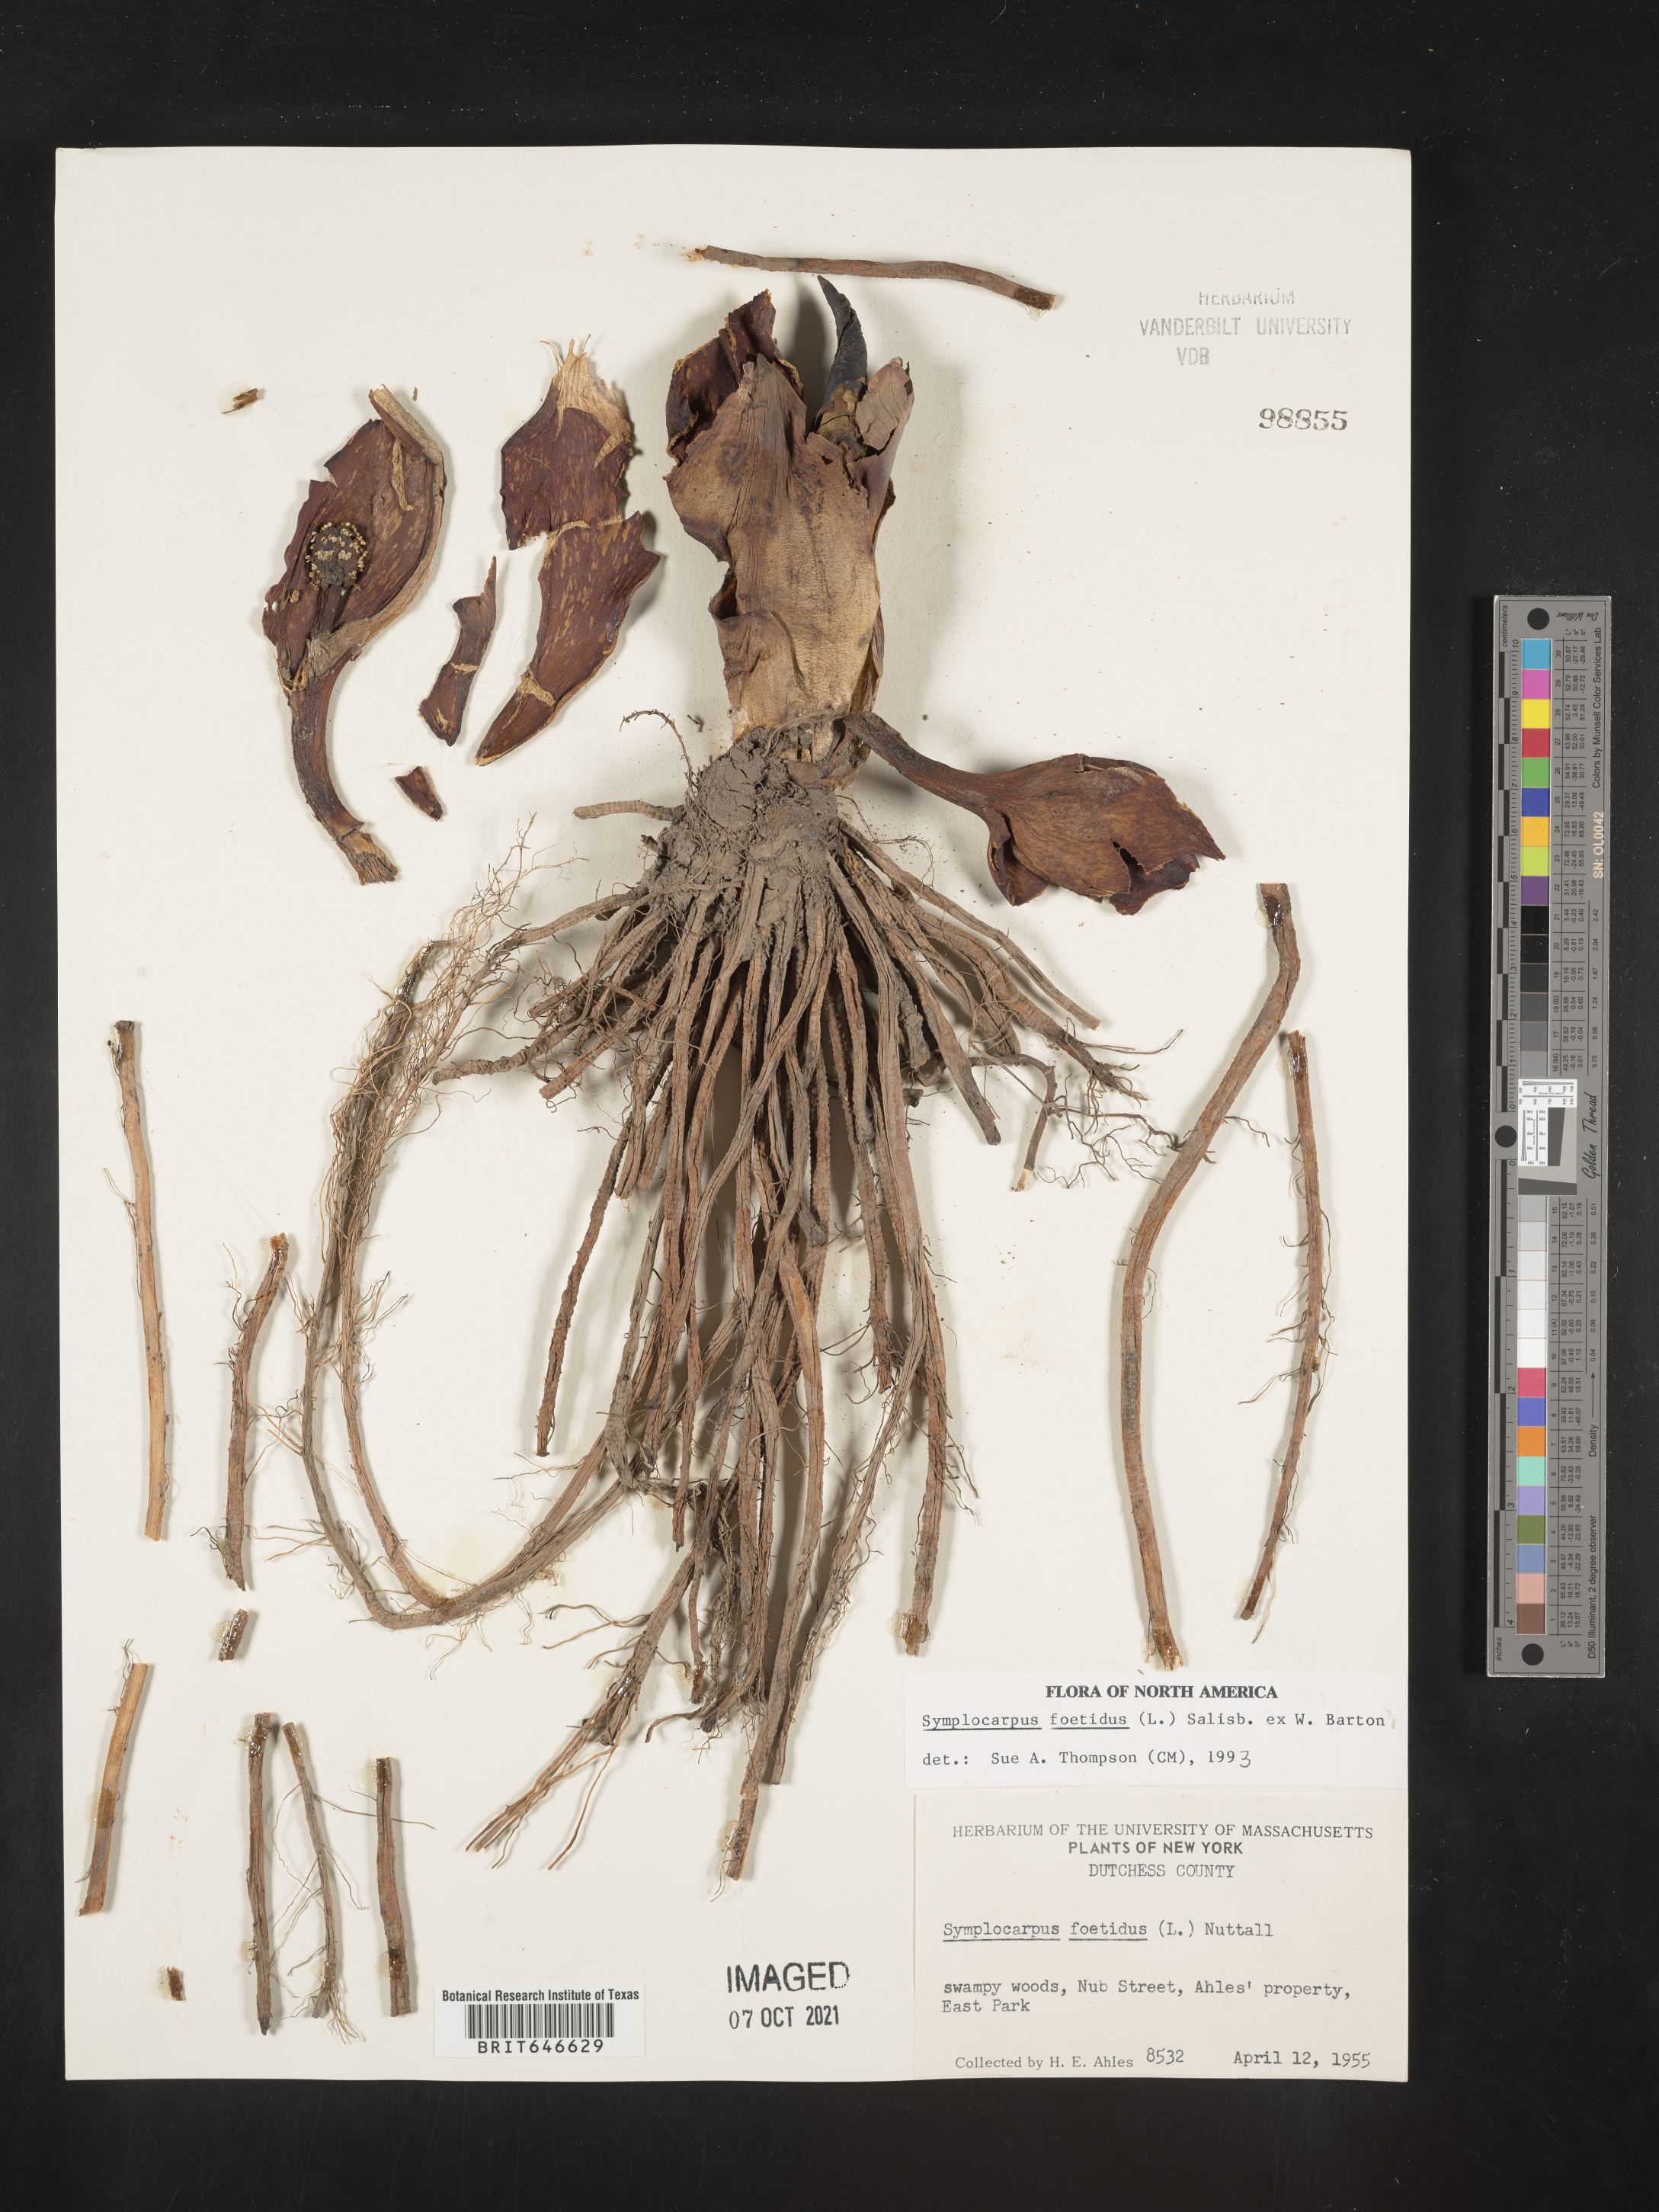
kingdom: Plantae
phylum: Tracheophyta
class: Liliopsida
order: Alismatales
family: Araceae
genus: Symplocarpus
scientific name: Symplocarpus foetidus
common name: Eastern skunk cabbage
